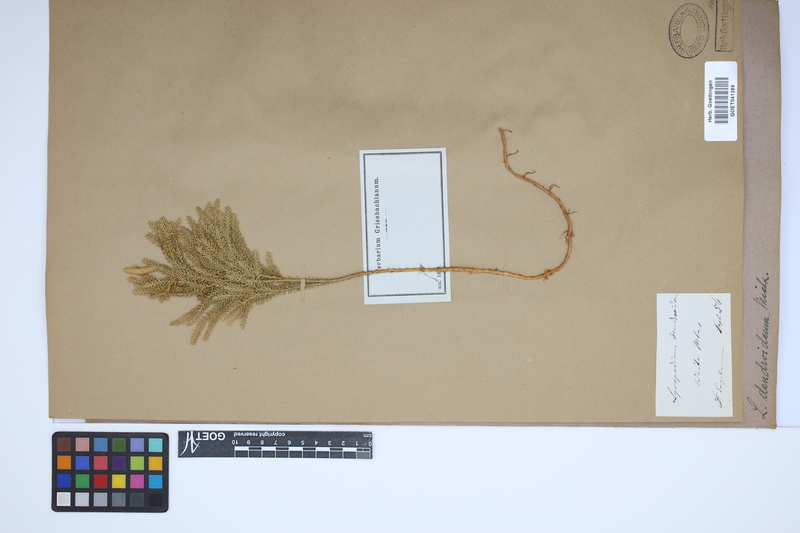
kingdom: Plantae
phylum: Tracheophyta
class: Lycopodiopsida
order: Lycopodiales
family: Lycopodiaceae
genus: Dendrolycopodium
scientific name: Dendrolycopodium dendroideum
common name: Northern tree-clubmoss
